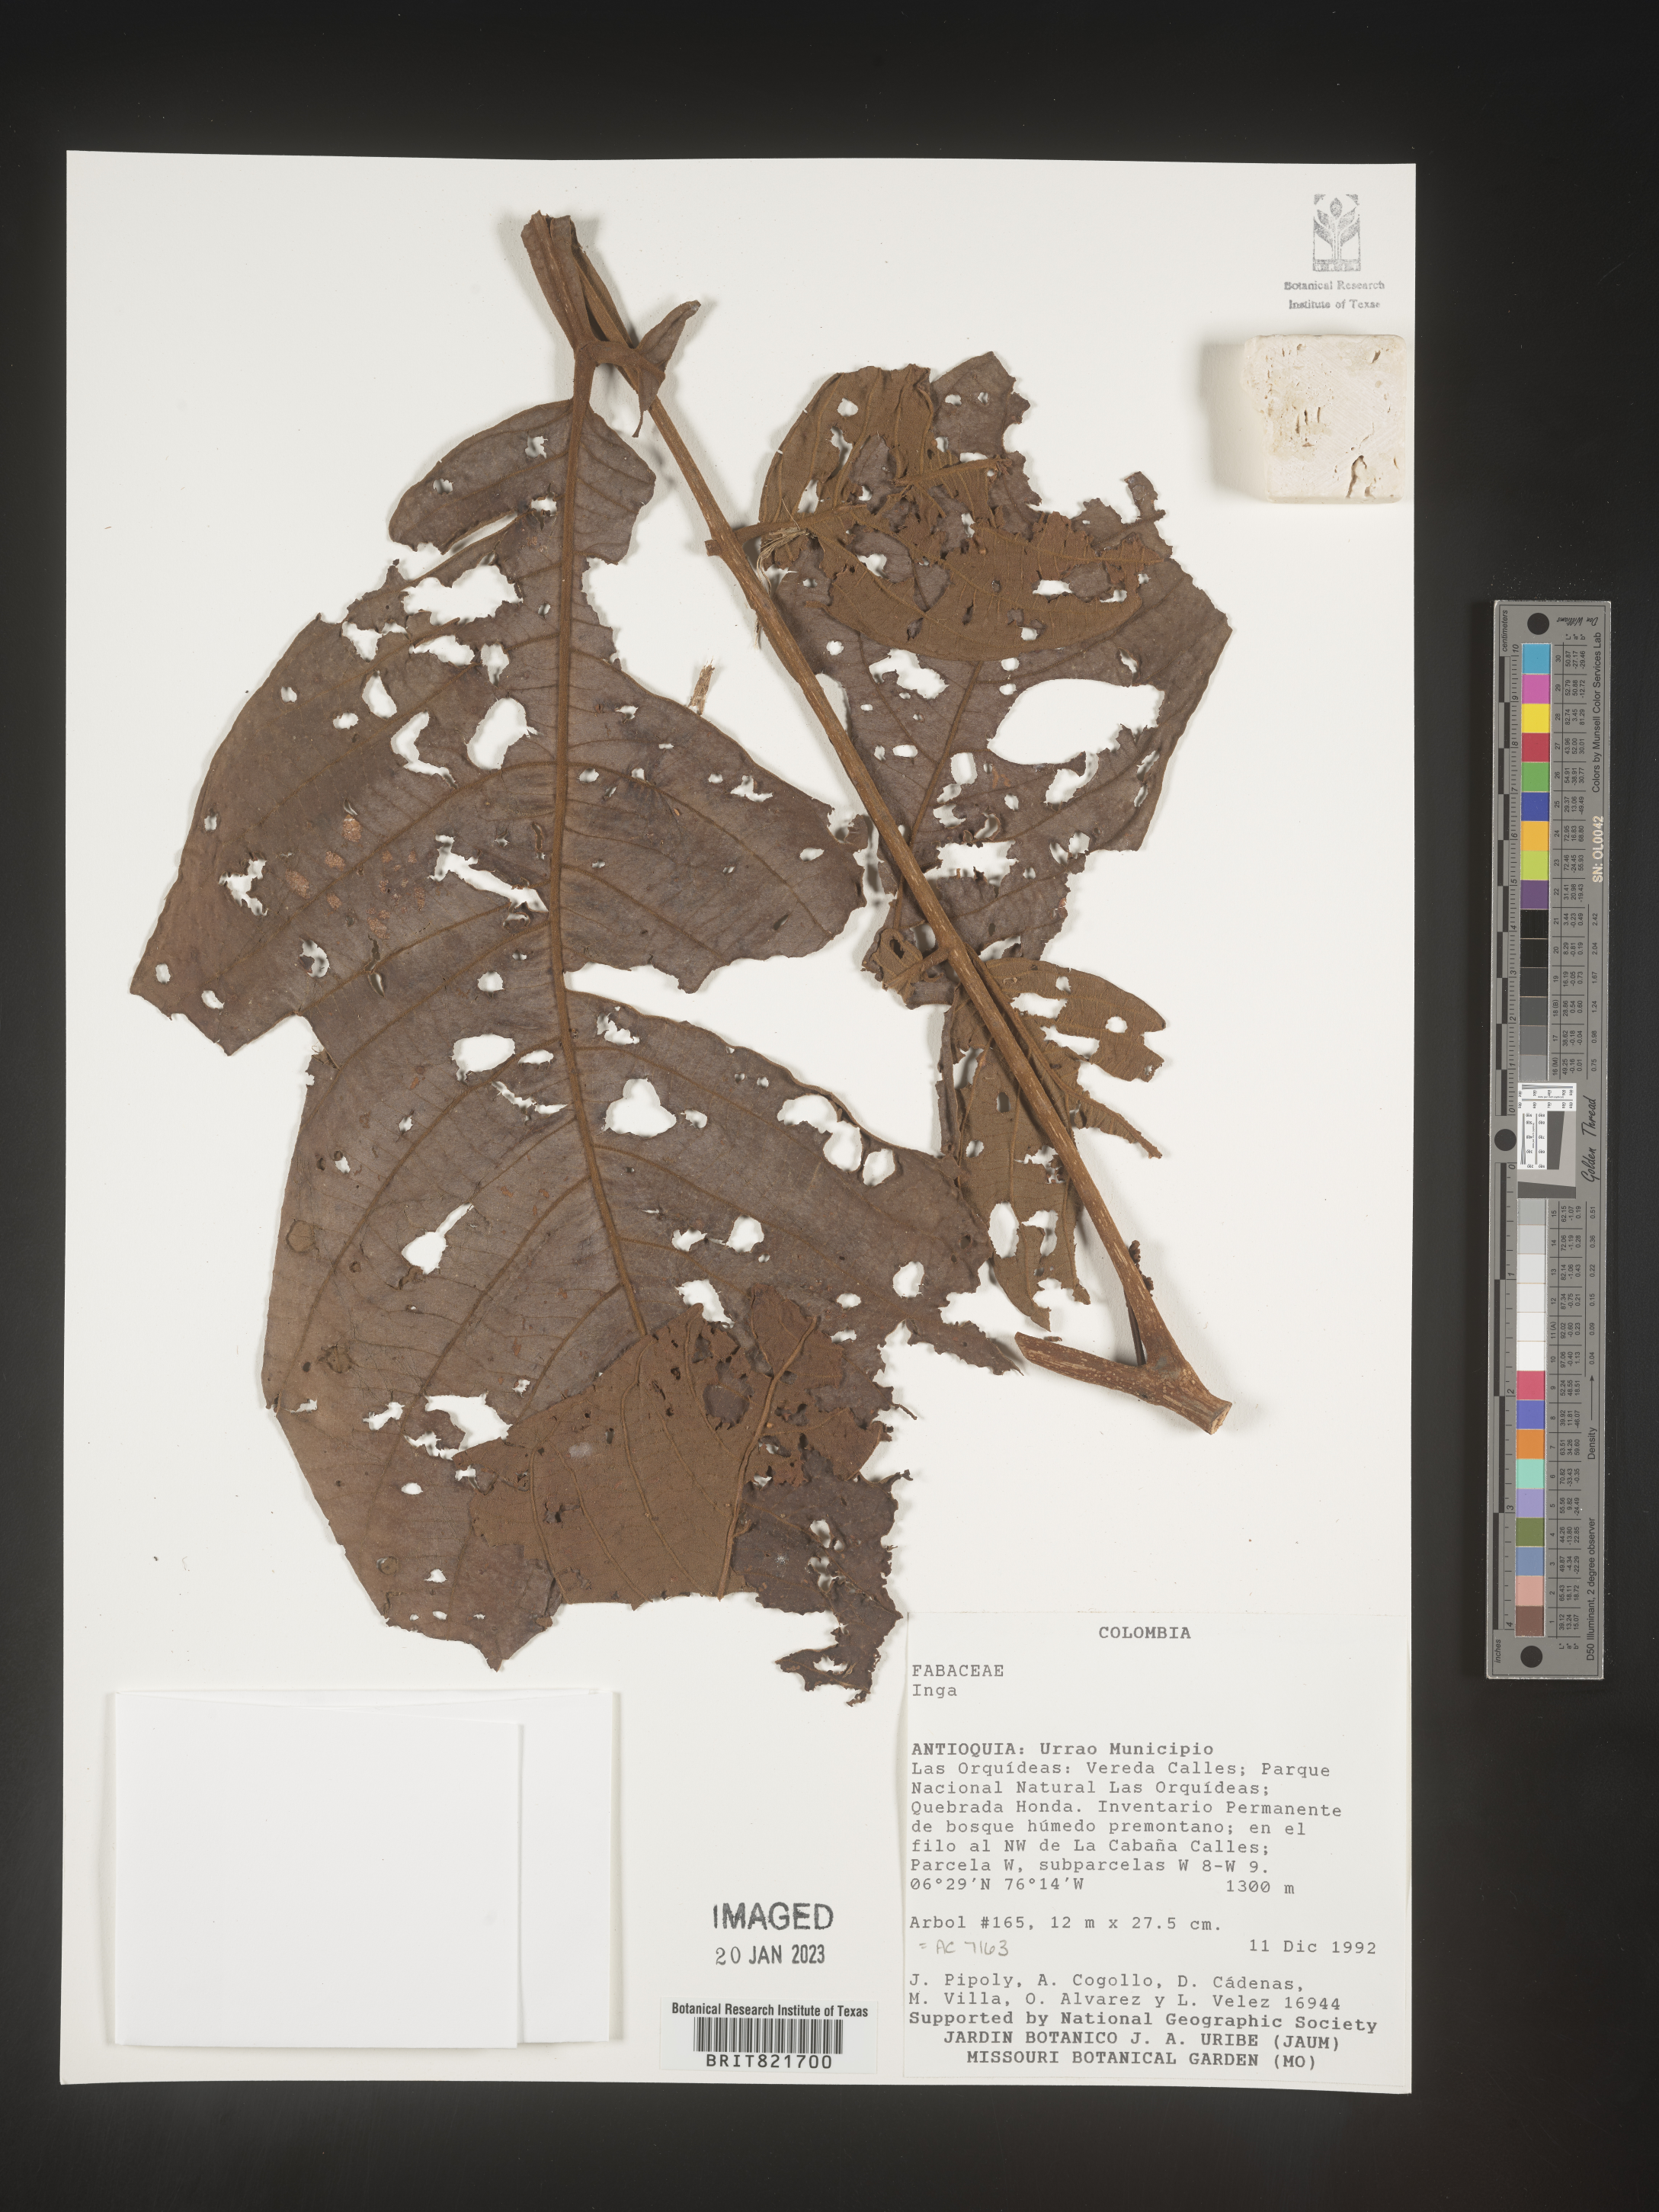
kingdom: Plantae
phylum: Tracheophyta
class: Magnoliopsida
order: Fabales
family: Fabaceae
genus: Inga
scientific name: Inga
